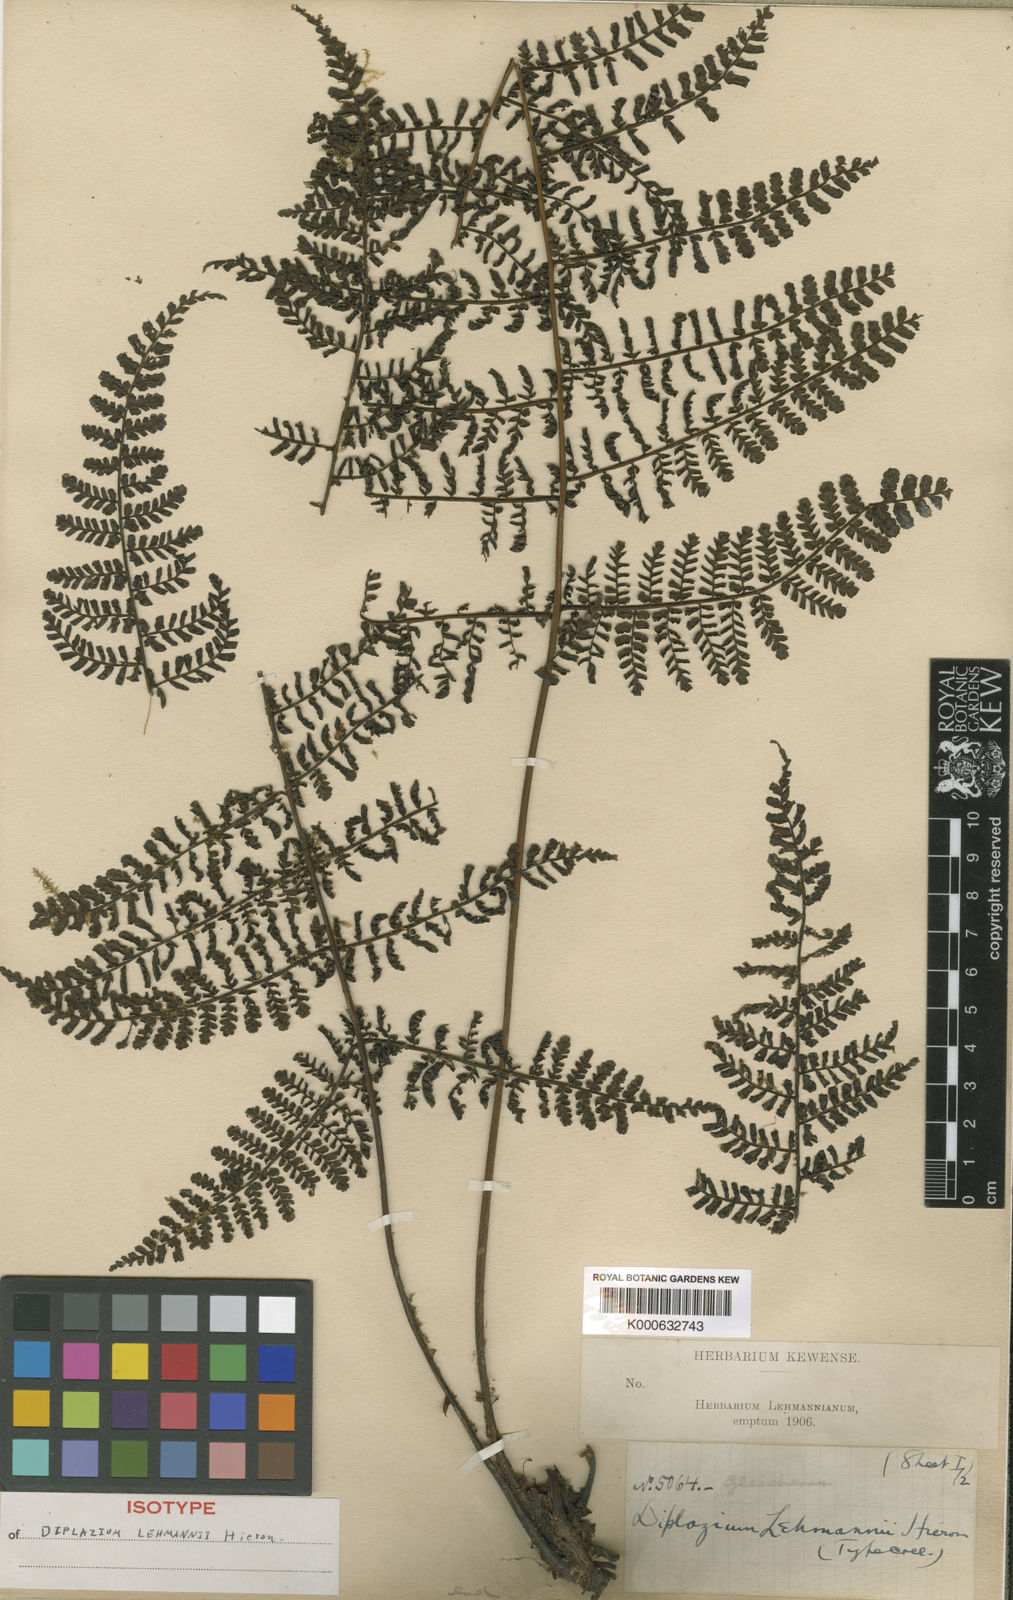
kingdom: Plantae
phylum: Tracheophyta
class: Polypodiopsida
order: Polypodiales
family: Athyriaceae
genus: Diplazium
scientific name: Diplazium alienum
